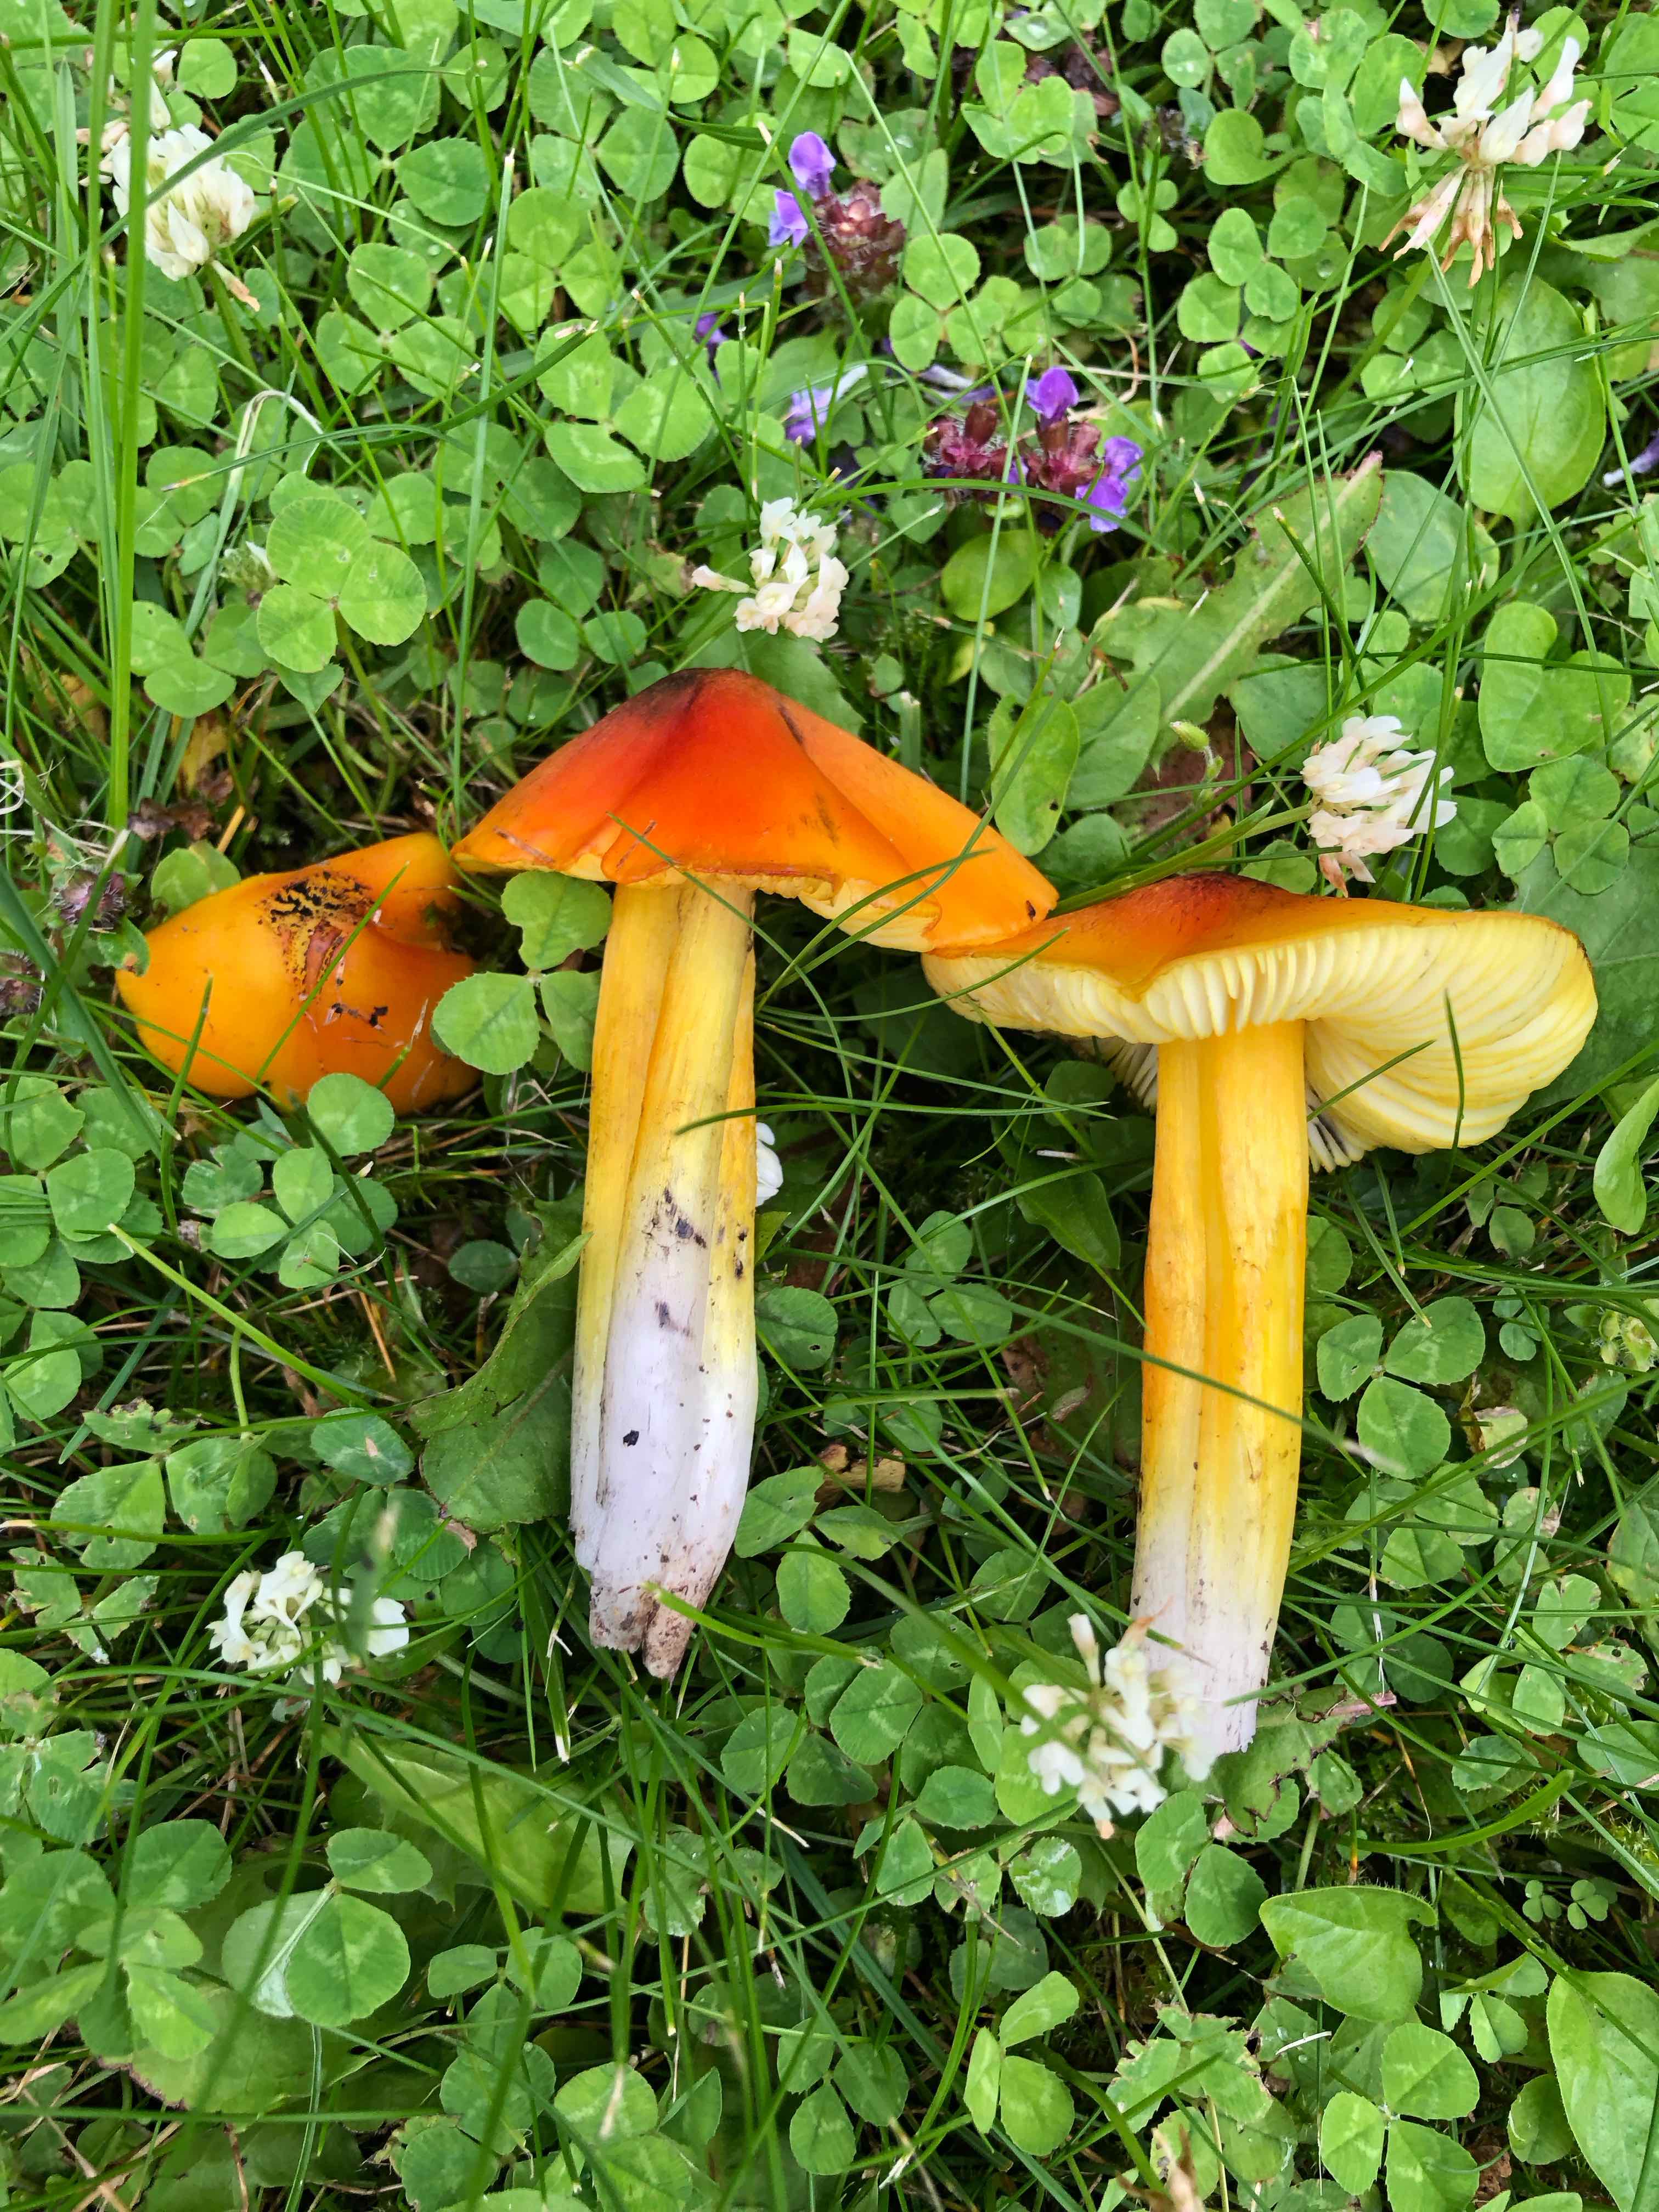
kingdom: Fungi
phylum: Basidiomycota
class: Agaricomycetes
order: Agaricales
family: Hygrophoraceae
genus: Hygrocybe
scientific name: Hygrocybe conica
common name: kegle-vokshat
